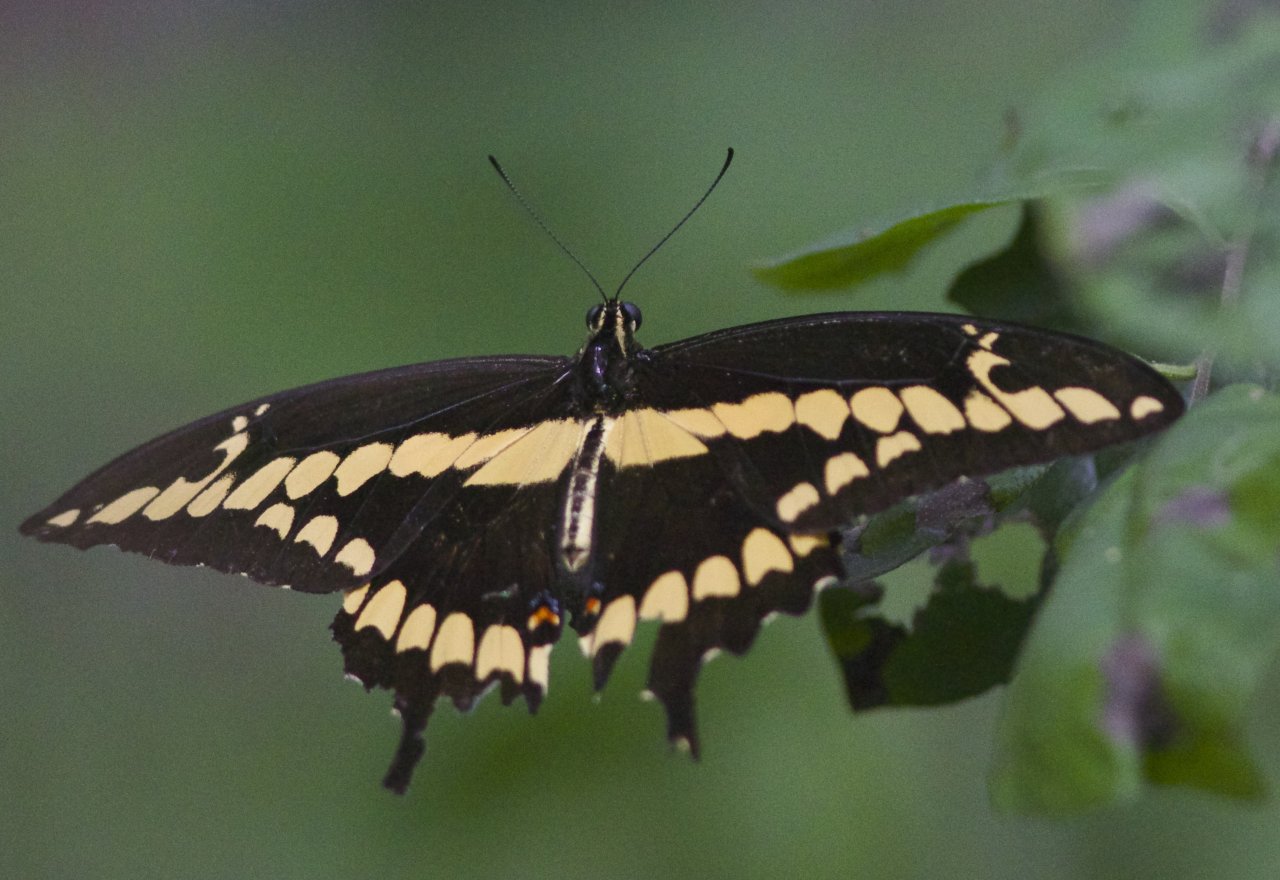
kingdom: Animalia
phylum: Arthropoda
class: Insecta
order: Lepidoptera
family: Papilionidae
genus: Papilio
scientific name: Papilio
